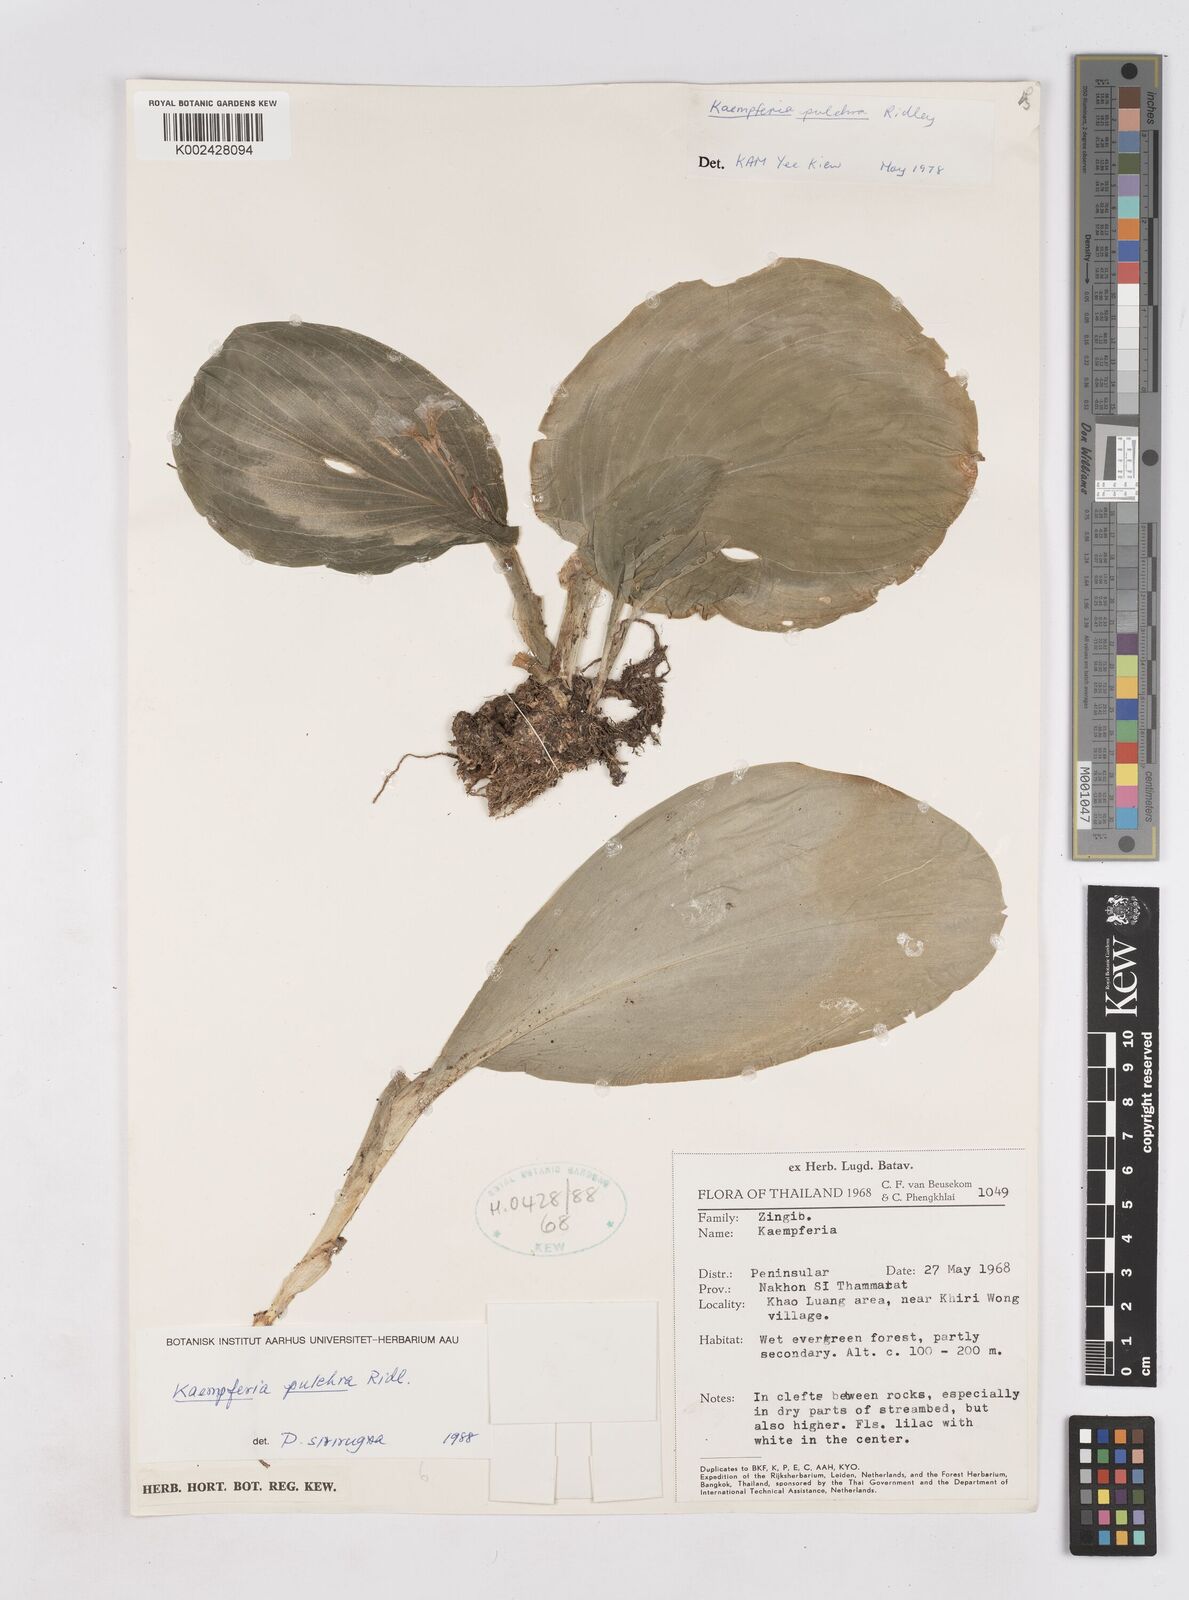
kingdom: Plantae
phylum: Tracheophyta
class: Liliopsida
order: Zingiberales
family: Zingiberaceae
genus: Kaempferia
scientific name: Kaempferia elegans
